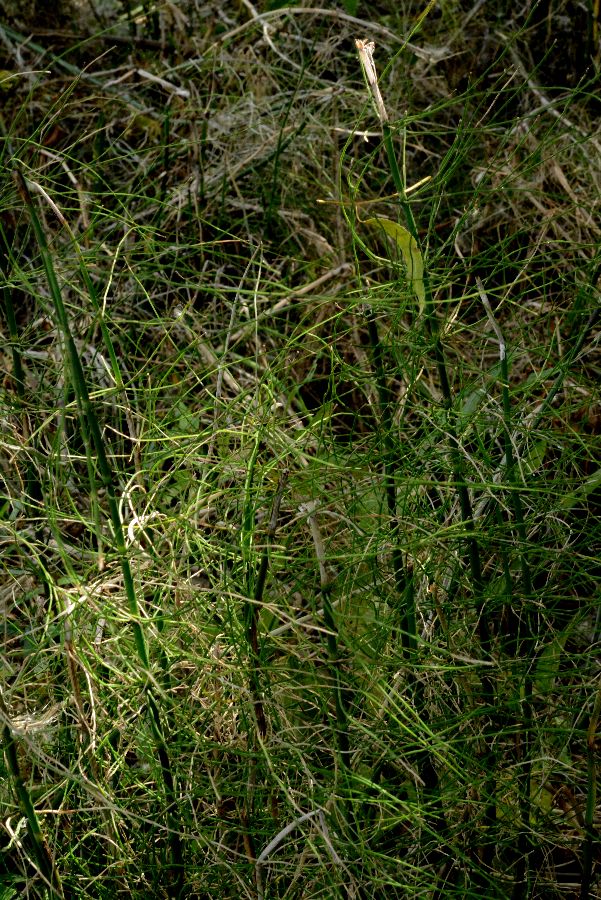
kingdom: Plantae
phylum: Tracheophyta
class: Polypodiopsida
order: Equisetales
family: Equisetaceae
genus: Equisetum
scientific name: Equisetum fluviatile
